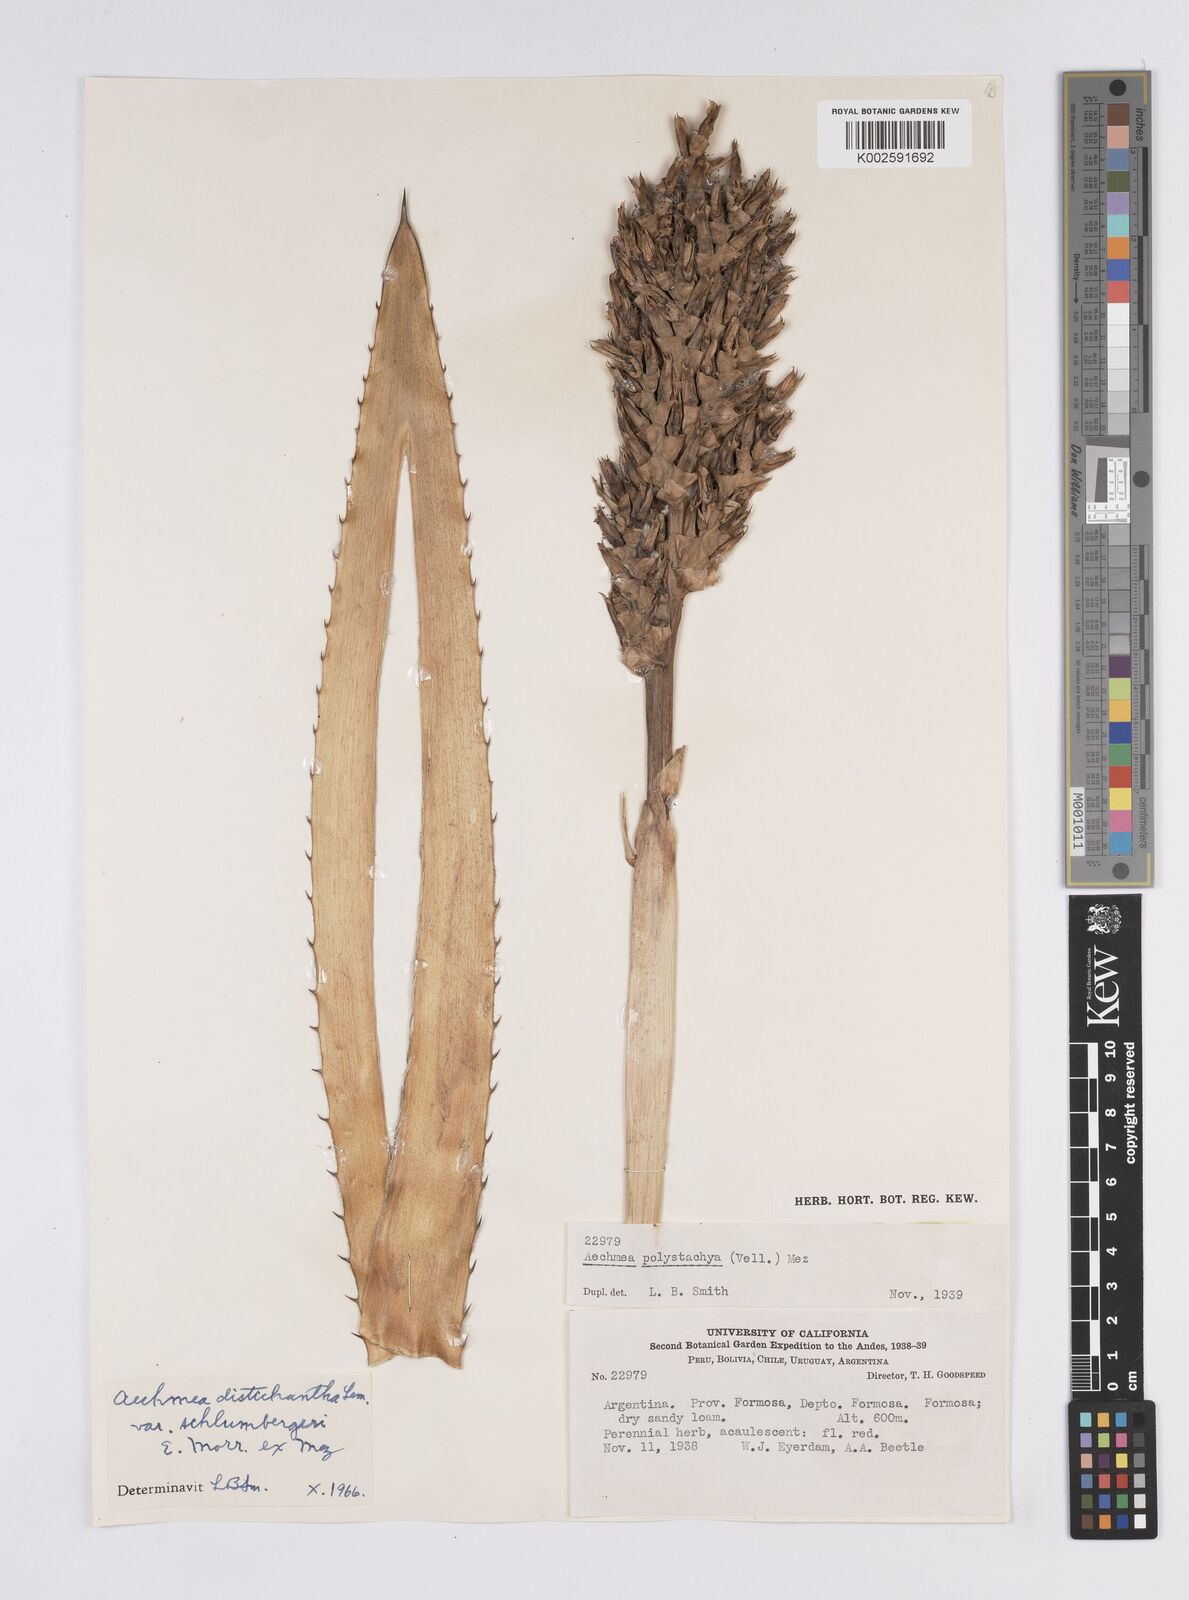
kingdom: Plantae
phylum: Tracheophyta
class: Liliopsida
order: Poales
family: Bromeliaceae
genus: Aechmea
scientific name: Aechmea distichantha
